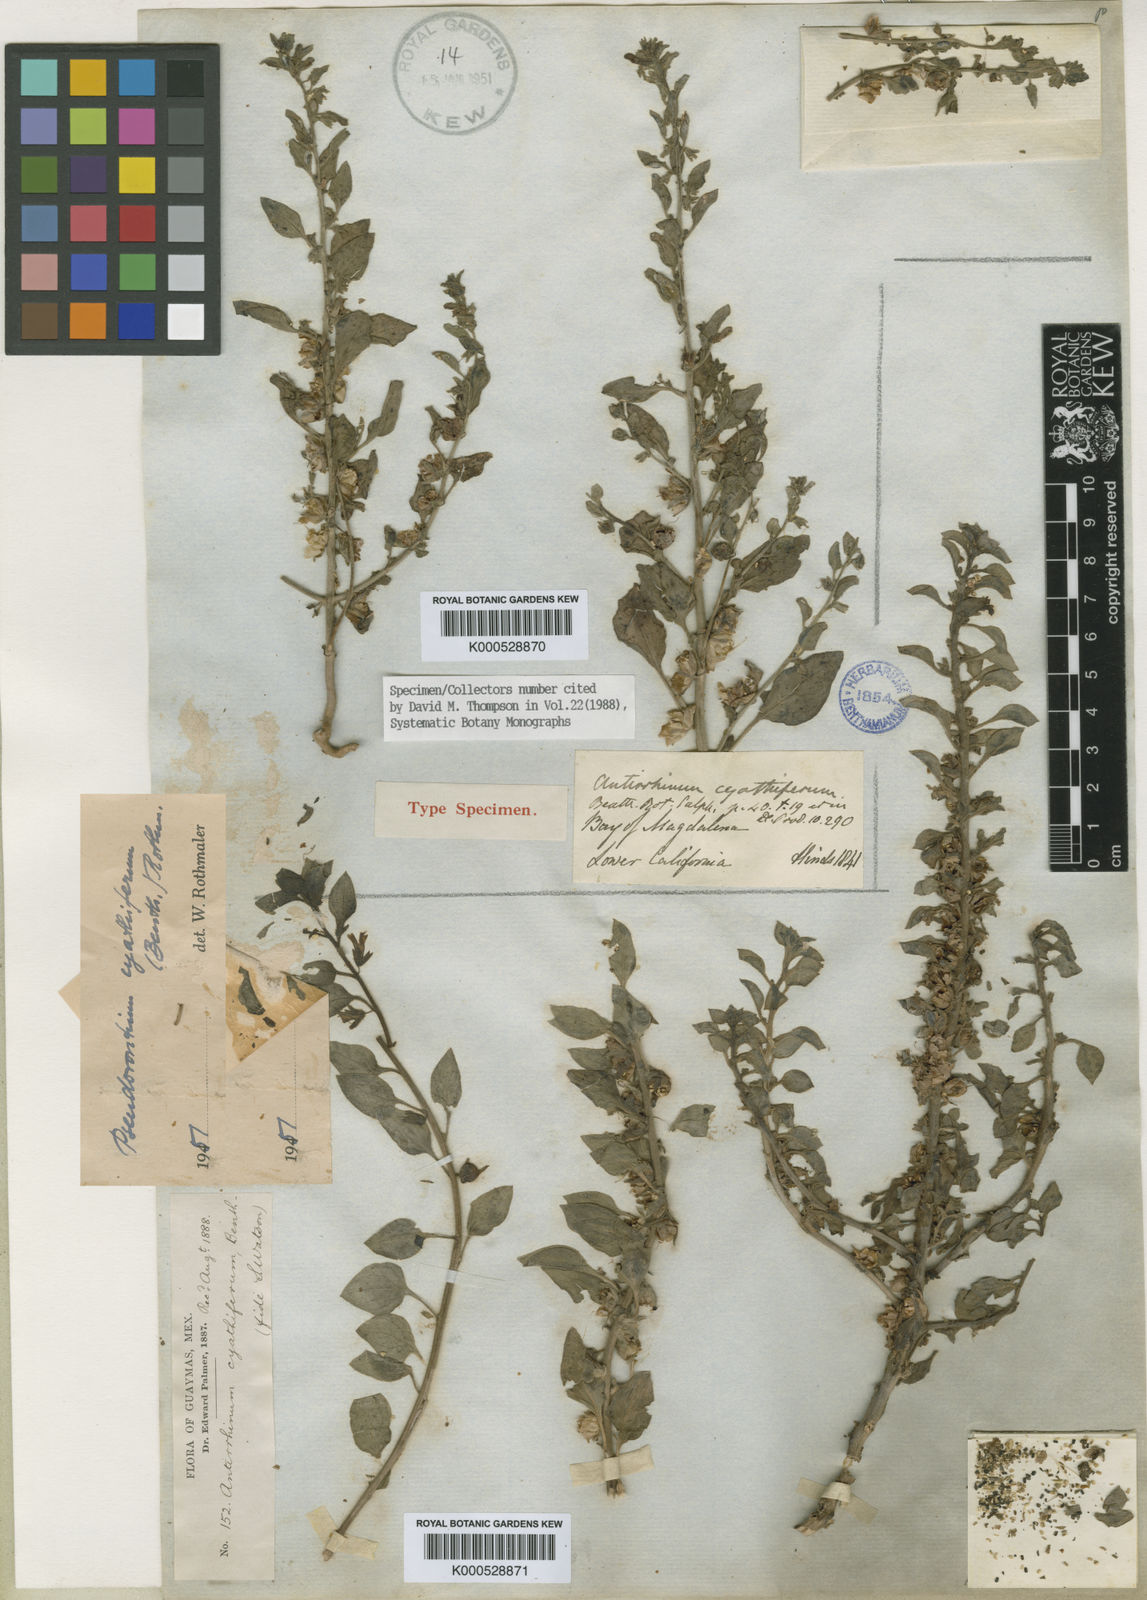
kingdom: Plantae
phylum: Tracheophyta
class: Magnoliopsida
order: Lamiales
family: Plantaginaceae
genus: Pseudorontium
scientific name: Pseudorontium cyathiferum
